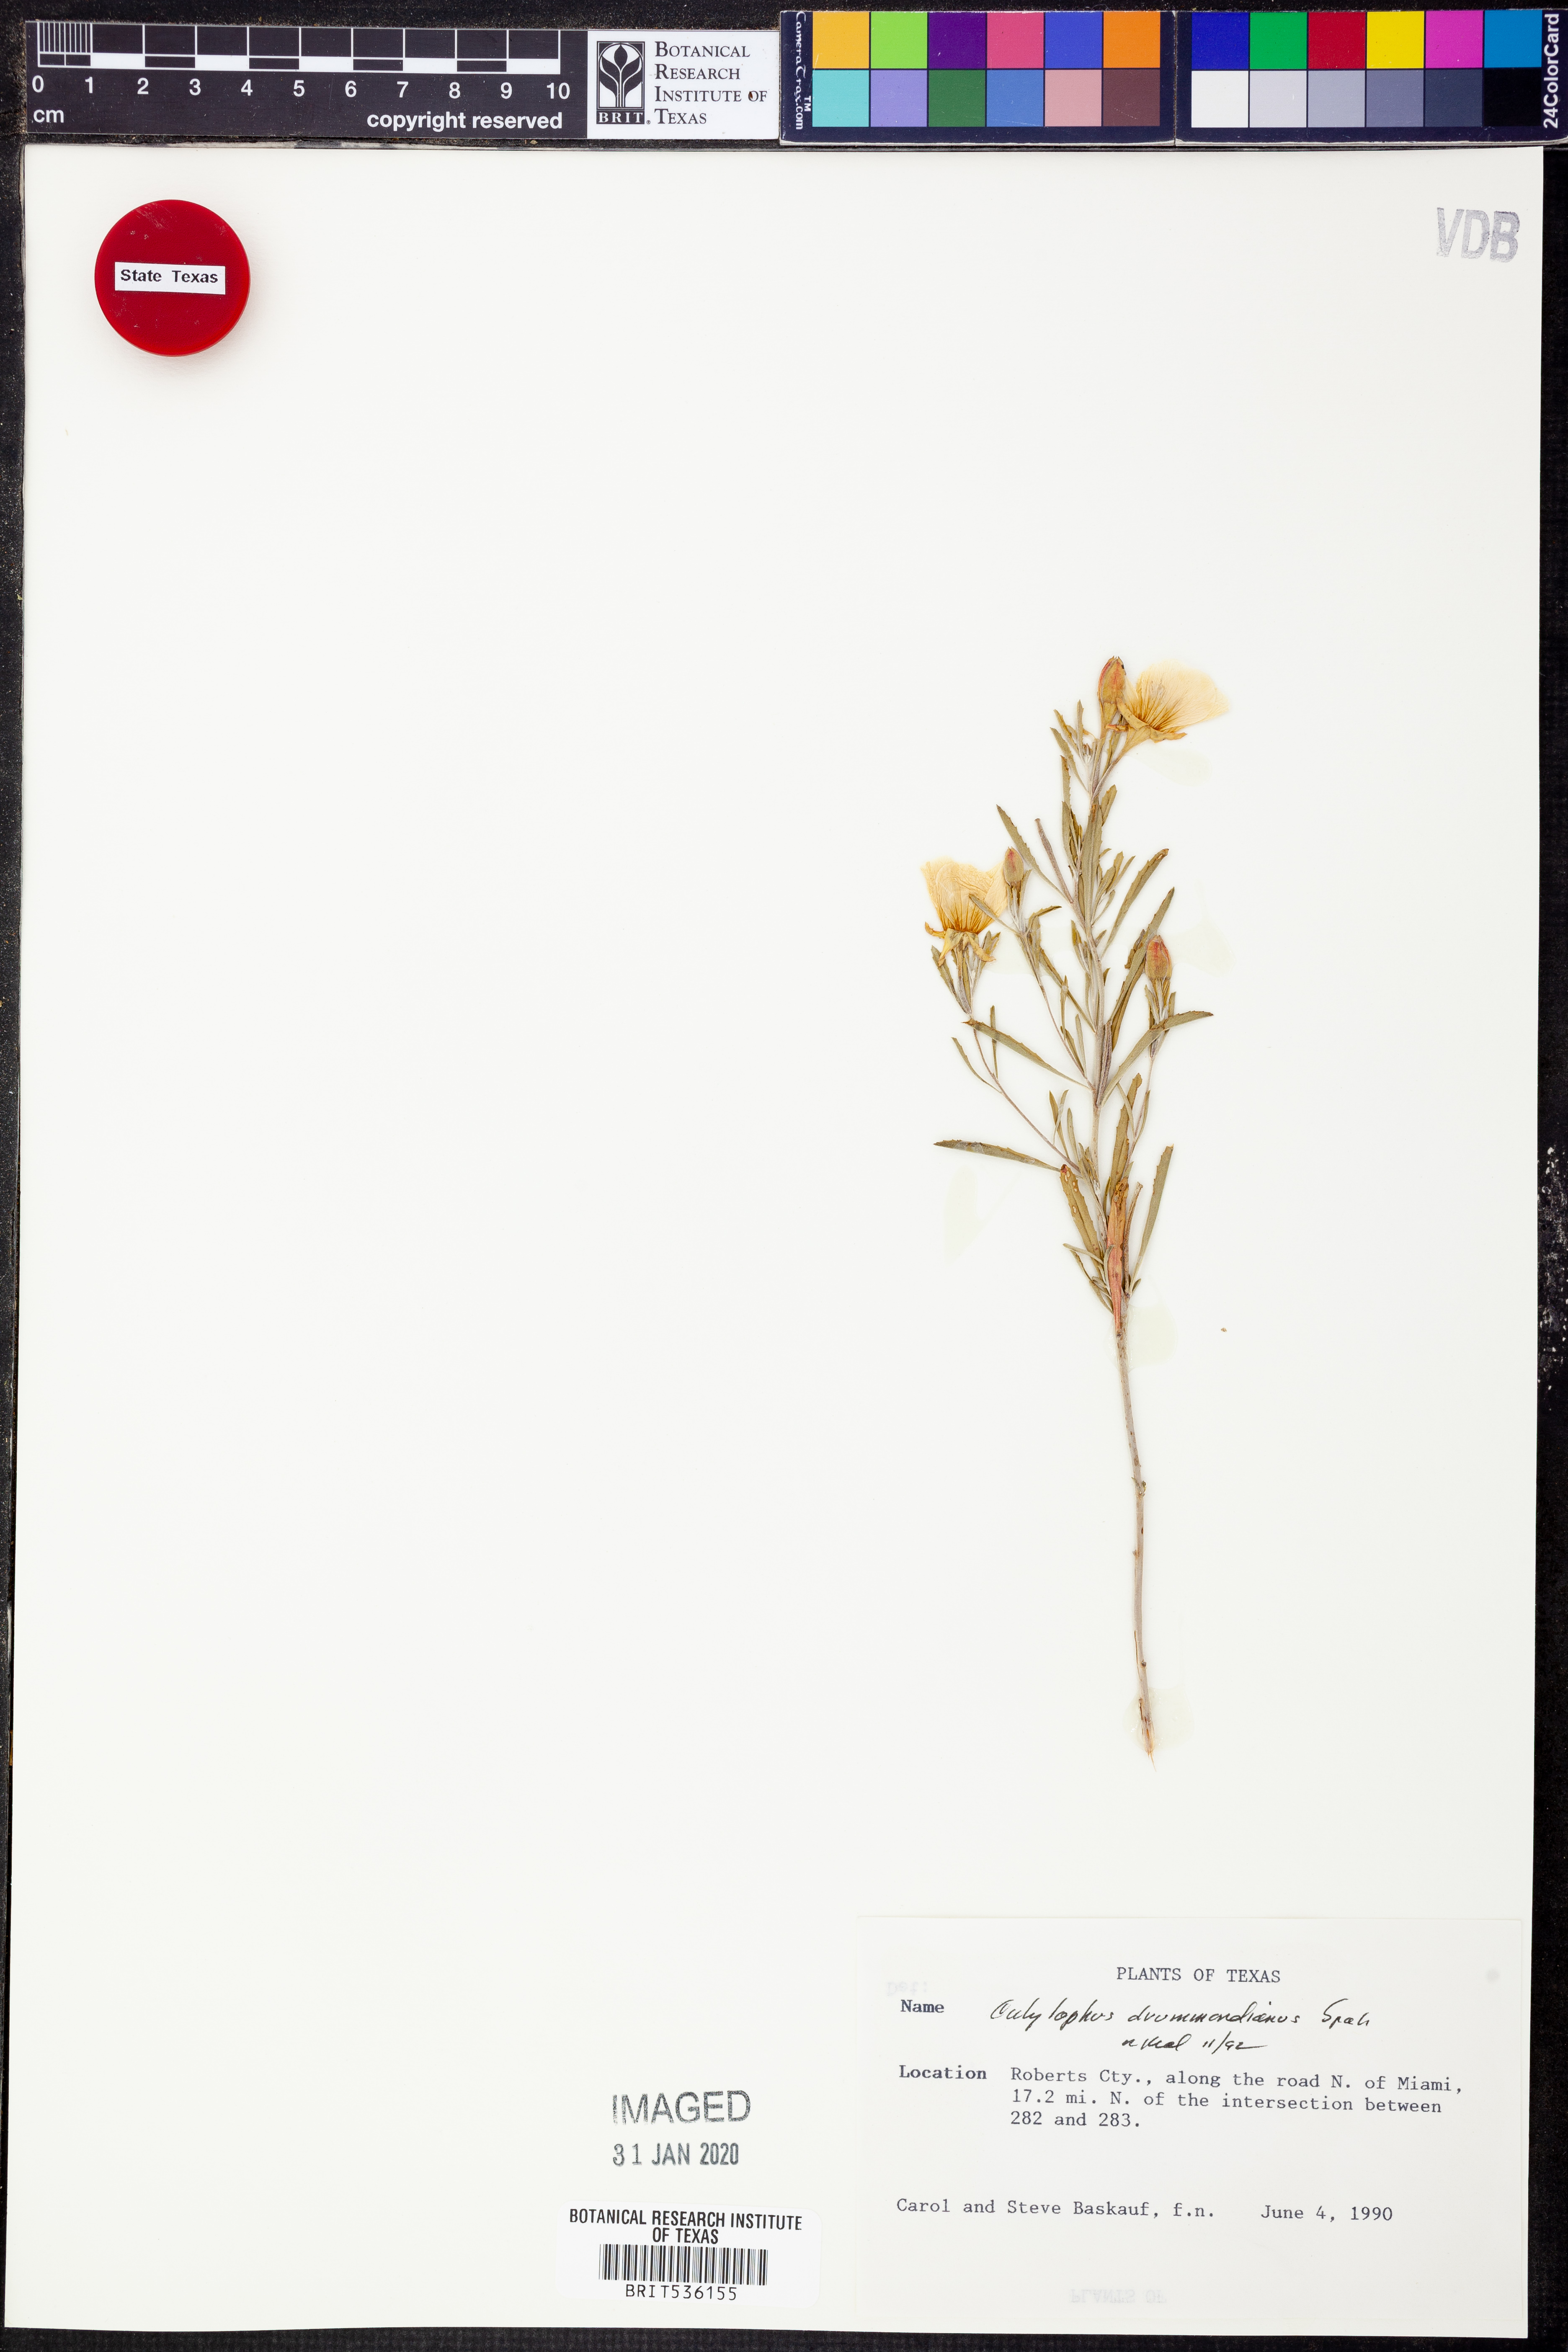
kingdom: Plantae
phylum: Tracheophyta
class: Magnoliopsida
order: Myrtales
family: Onagraceae
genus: Oenothera
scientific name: Oenothera serrulata
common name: Half-shrub calylophus
